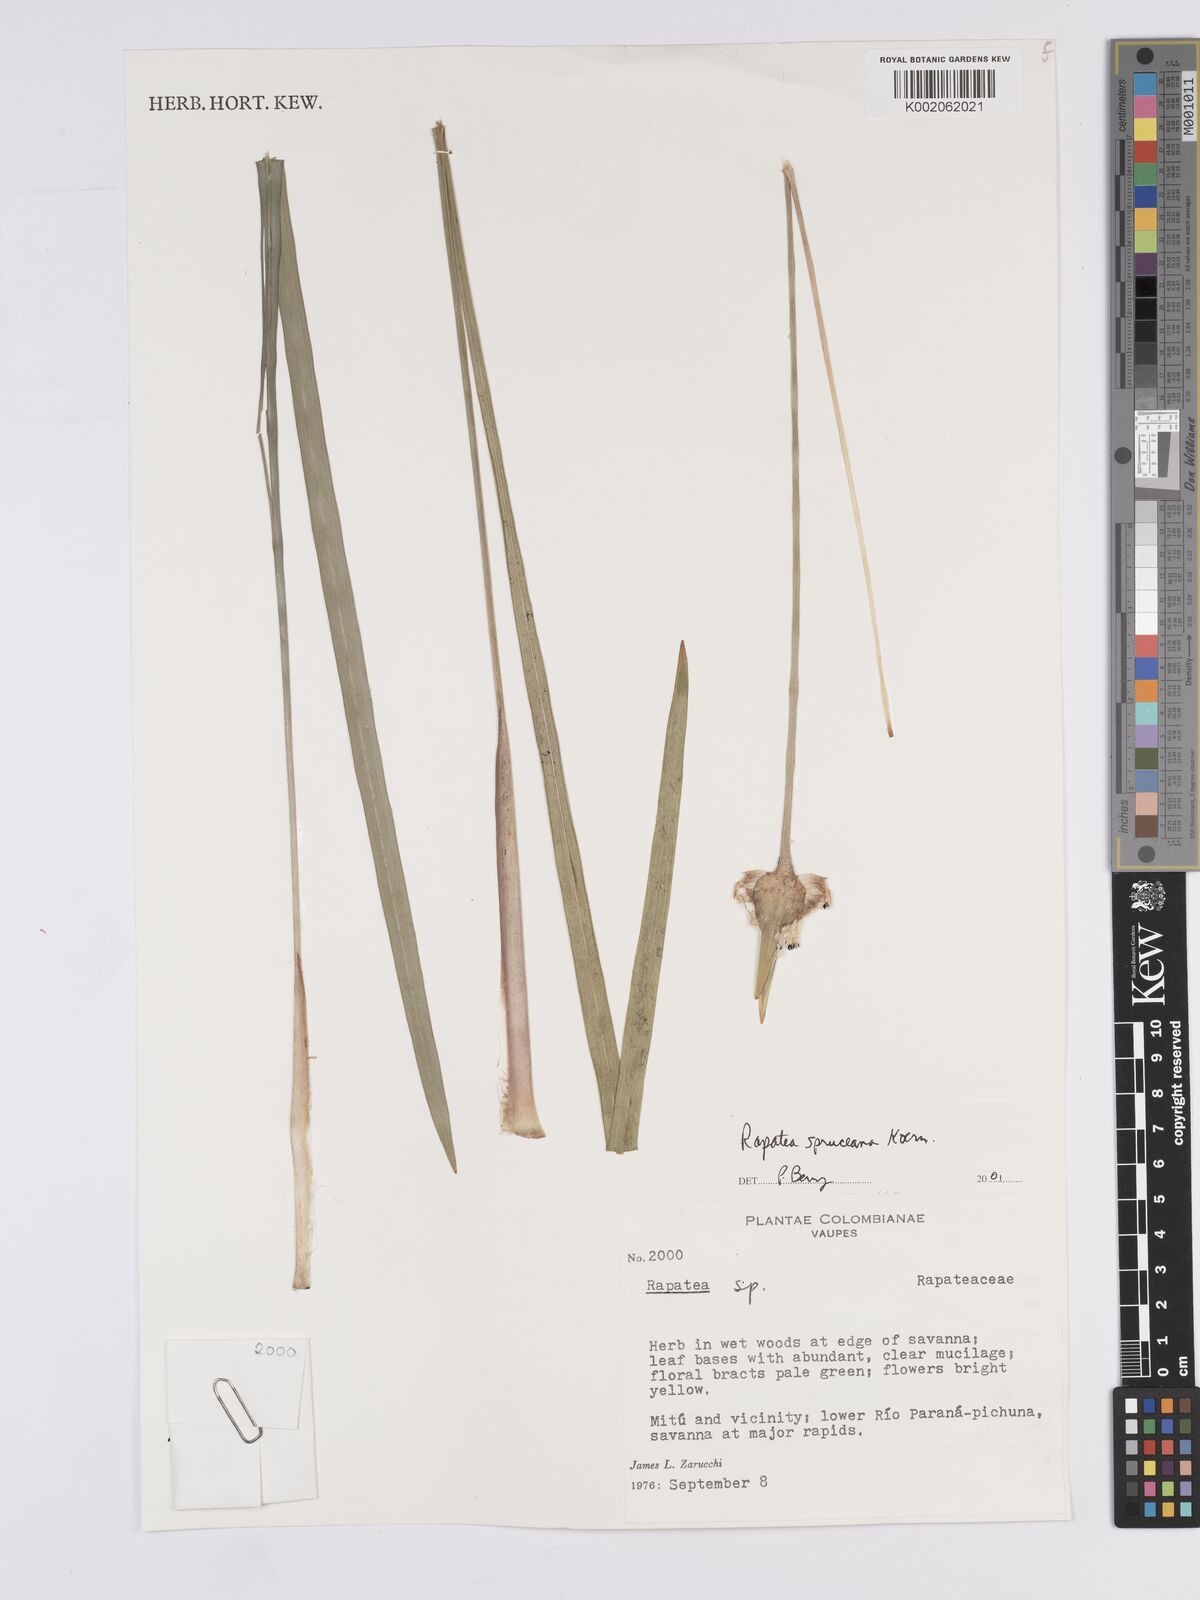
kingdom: Plantae
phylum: Tracheophyta
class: Liliopsida
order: Poales
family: Rapateaceae
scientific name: Rapateaceae
